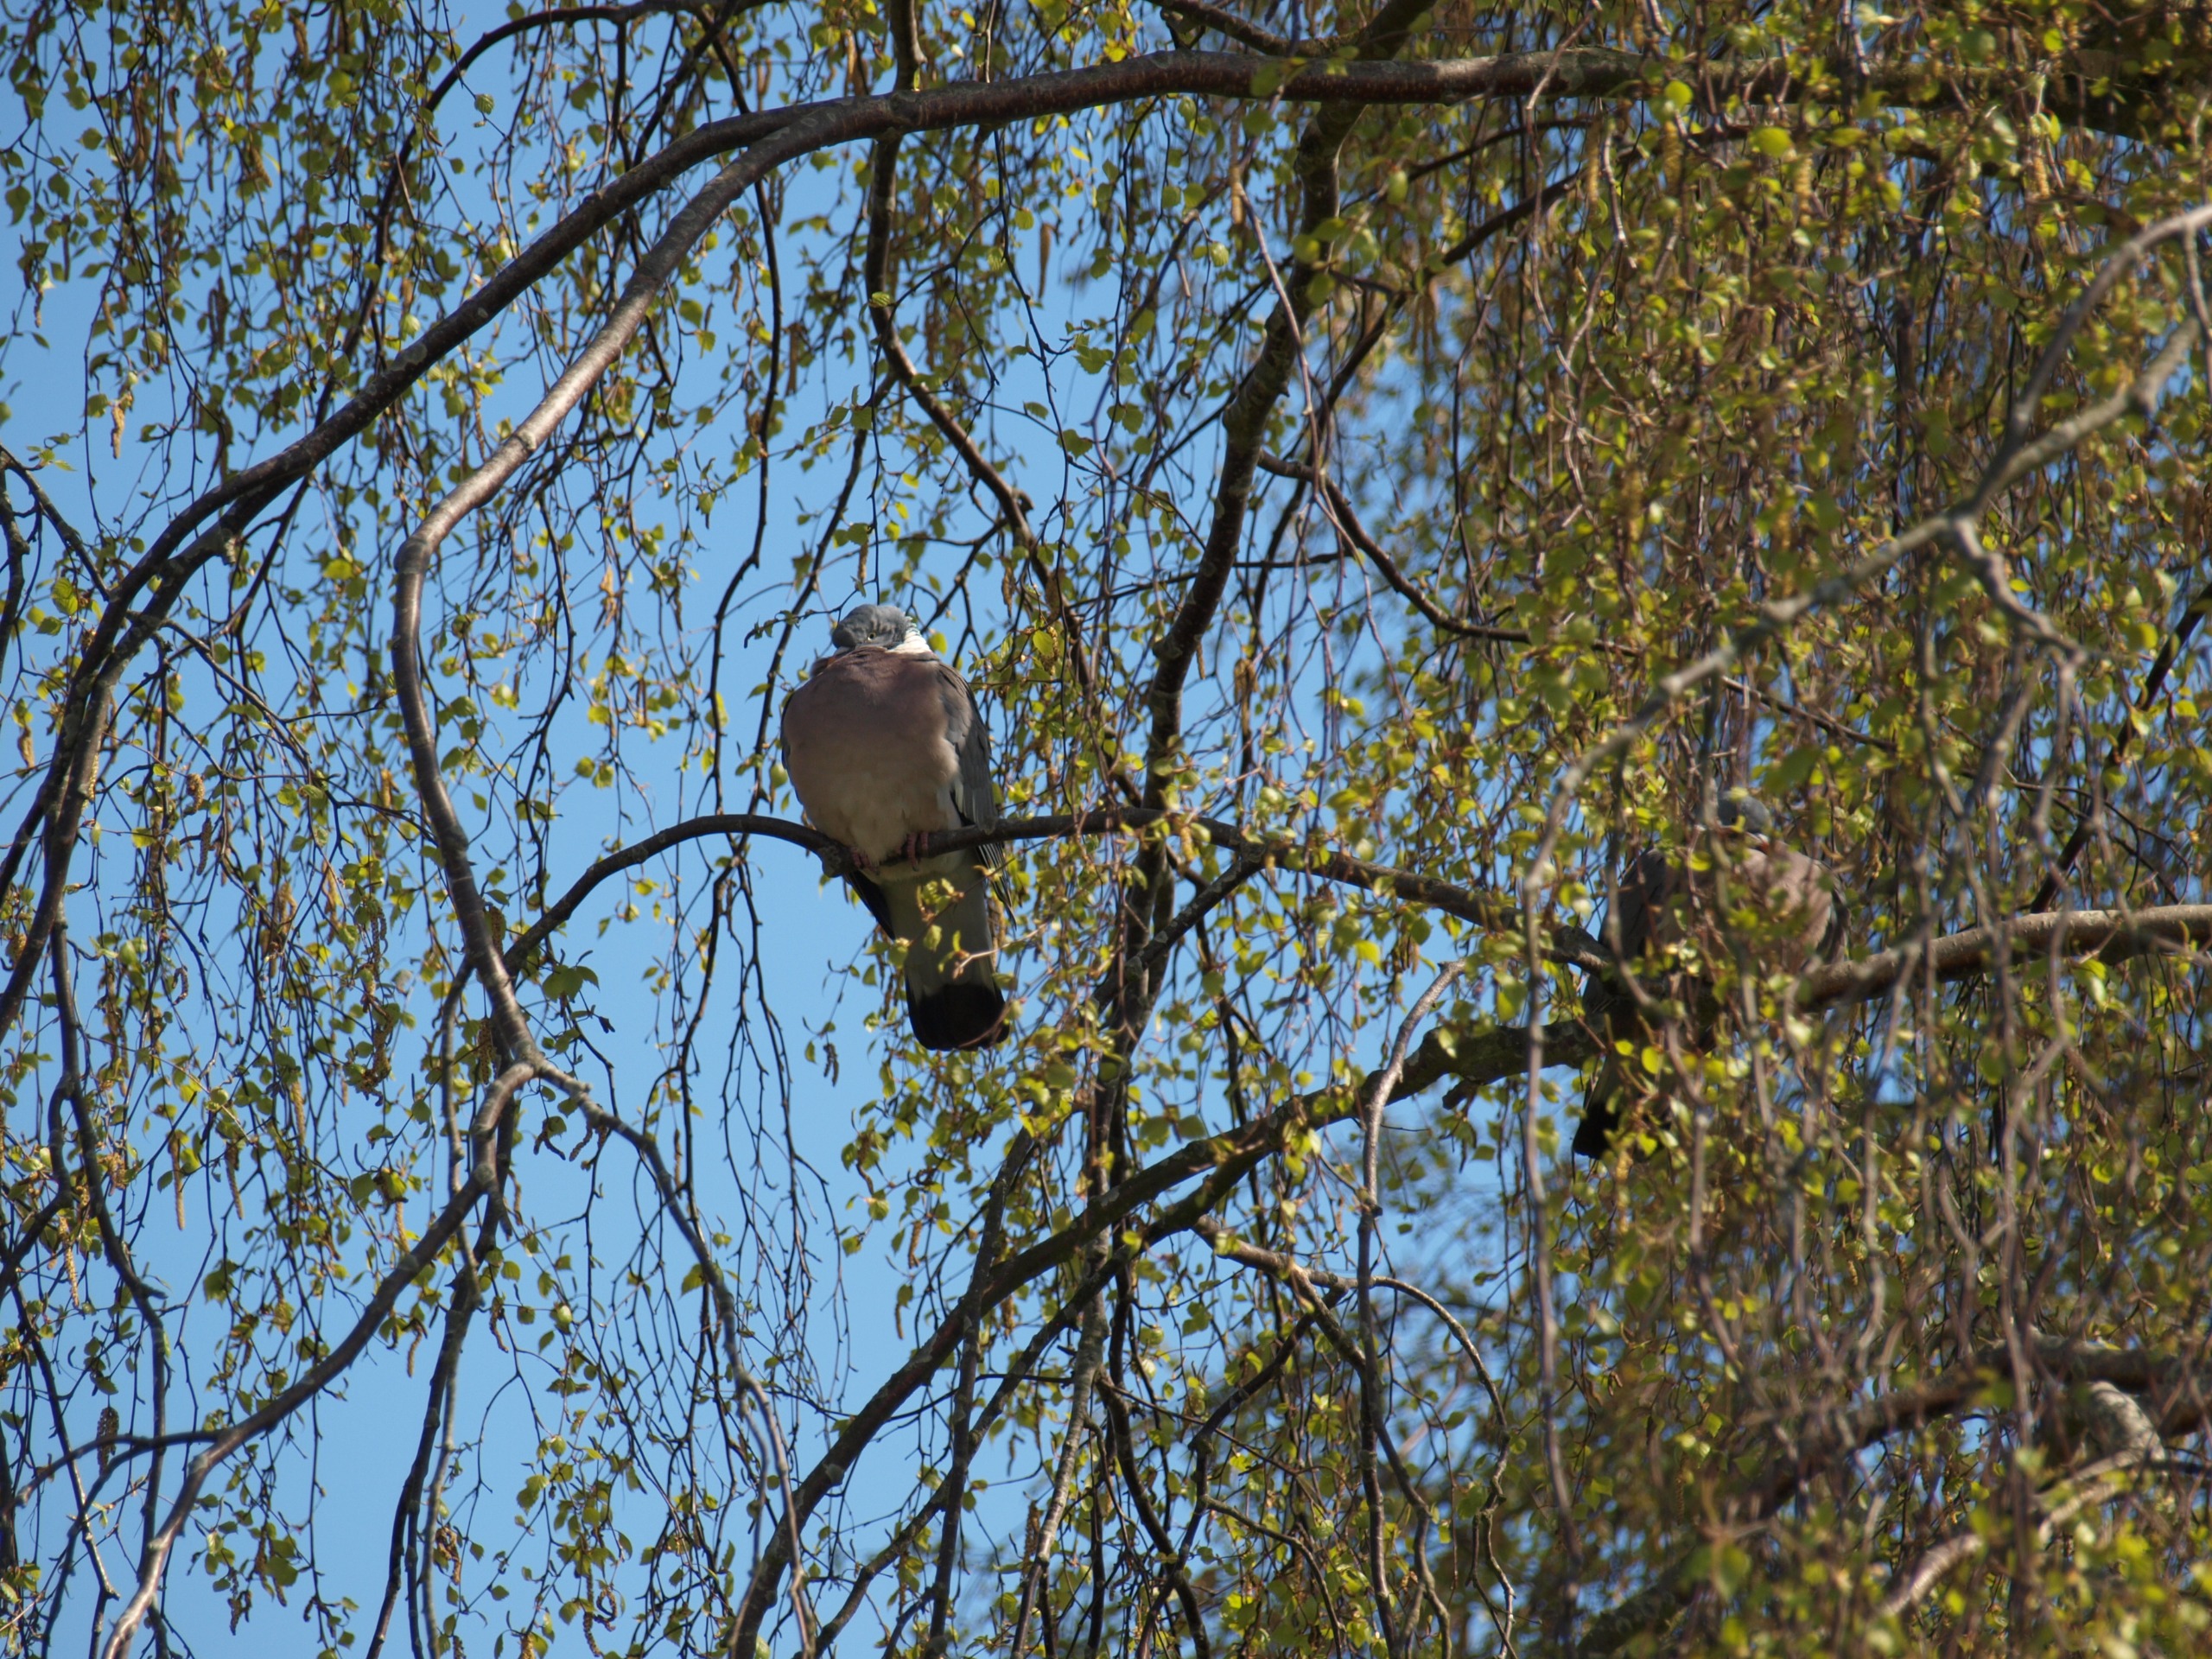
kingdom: Animalia
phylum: Chordata
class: Aves
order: Columbiformes
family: Columbidae
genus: Columba
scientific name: Columba palumbus
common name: Ringdue
